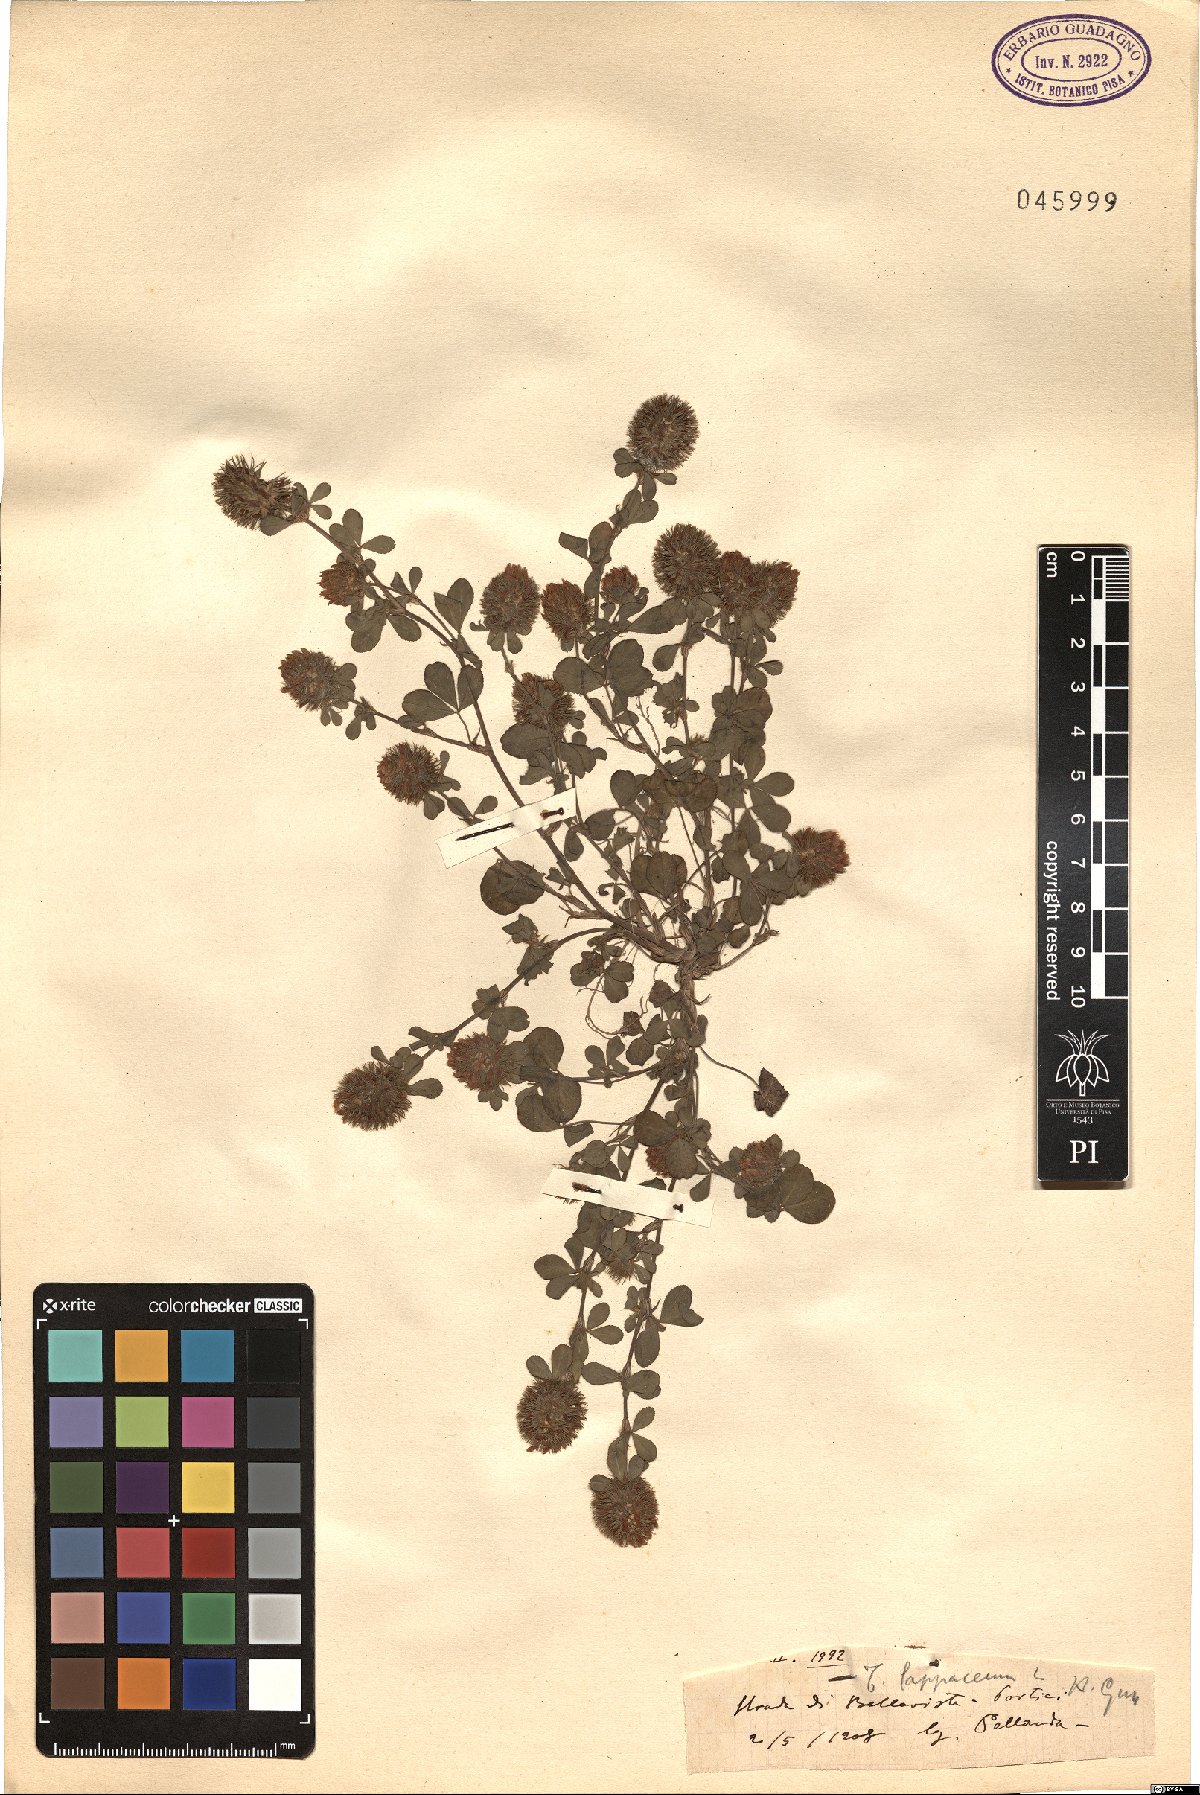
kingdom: Plantae
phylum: Tracheophyta
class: Magnoliopsida
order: Fabales
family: Fabaceae
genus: Trifolium
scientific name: Trifolium lappaceum
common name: Bur clover
